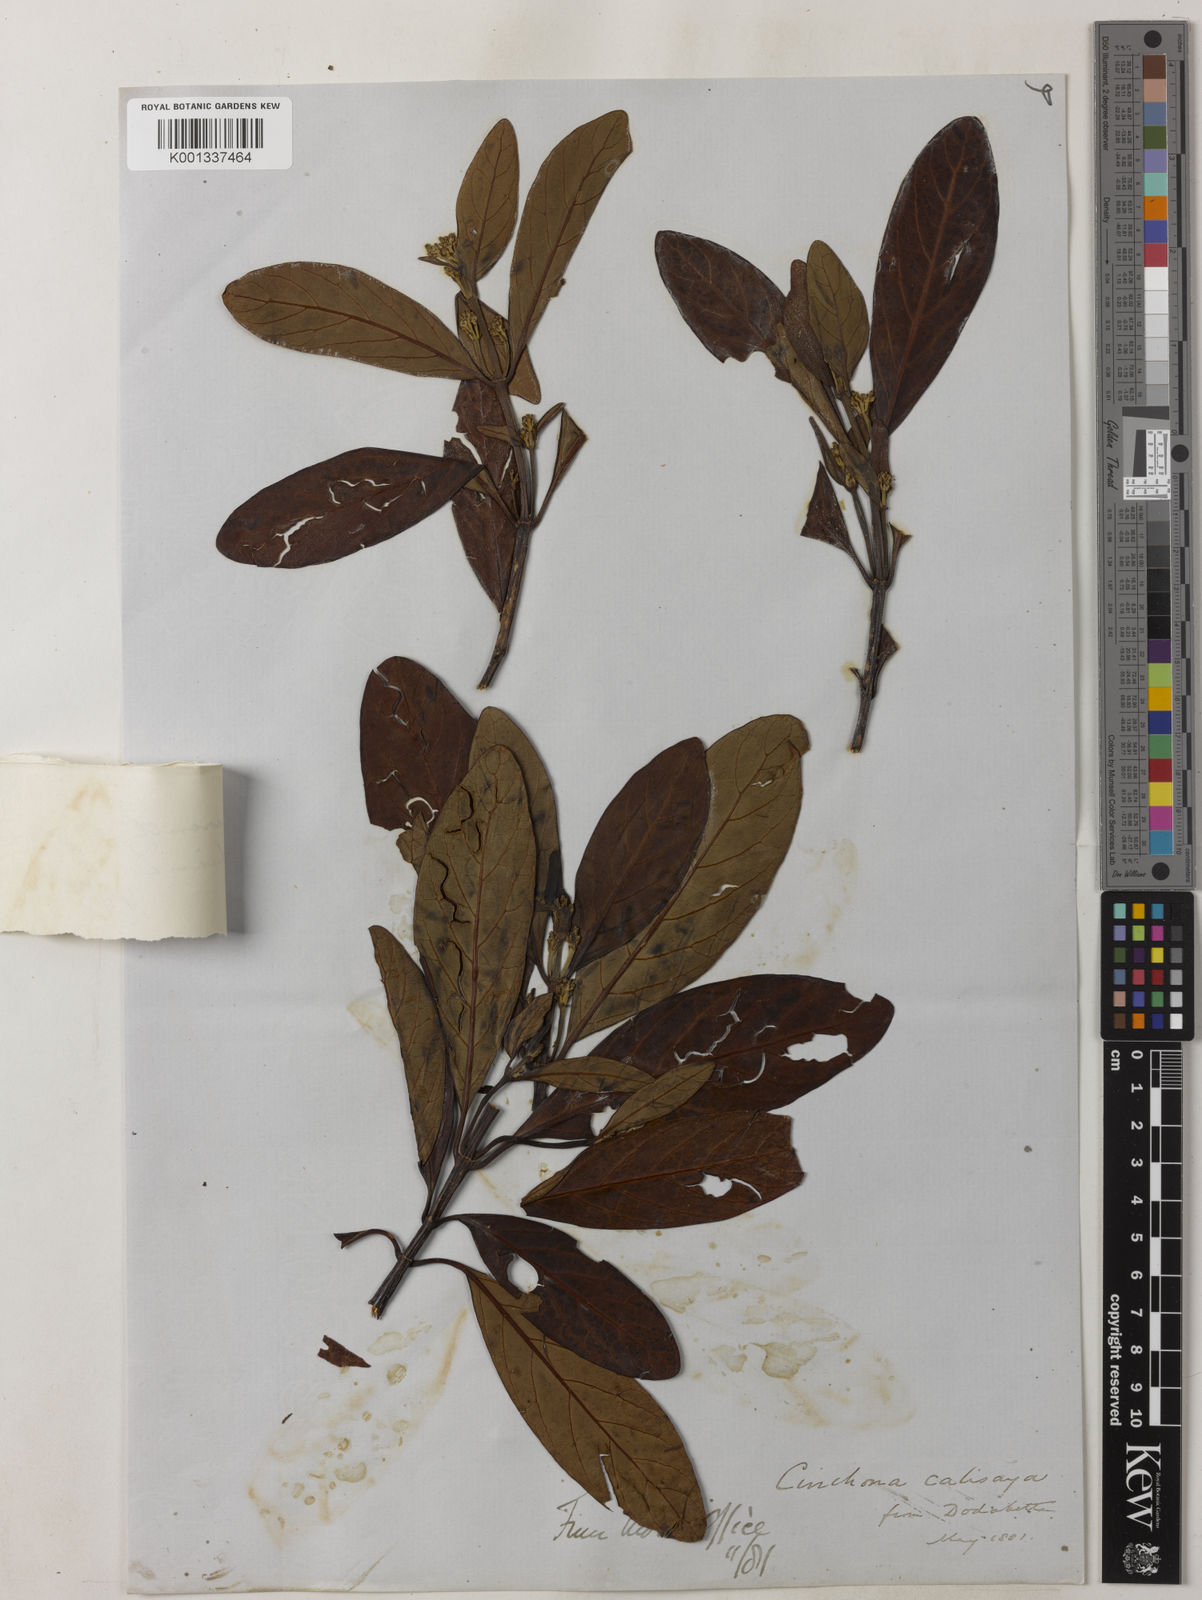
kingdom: Plantae
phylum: Tracheophyta
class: Magnoliopsida
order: Gentianales
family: Rubiaceae
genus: Cinchona
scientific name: Cinchona calisaya
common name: Ledgerbark
